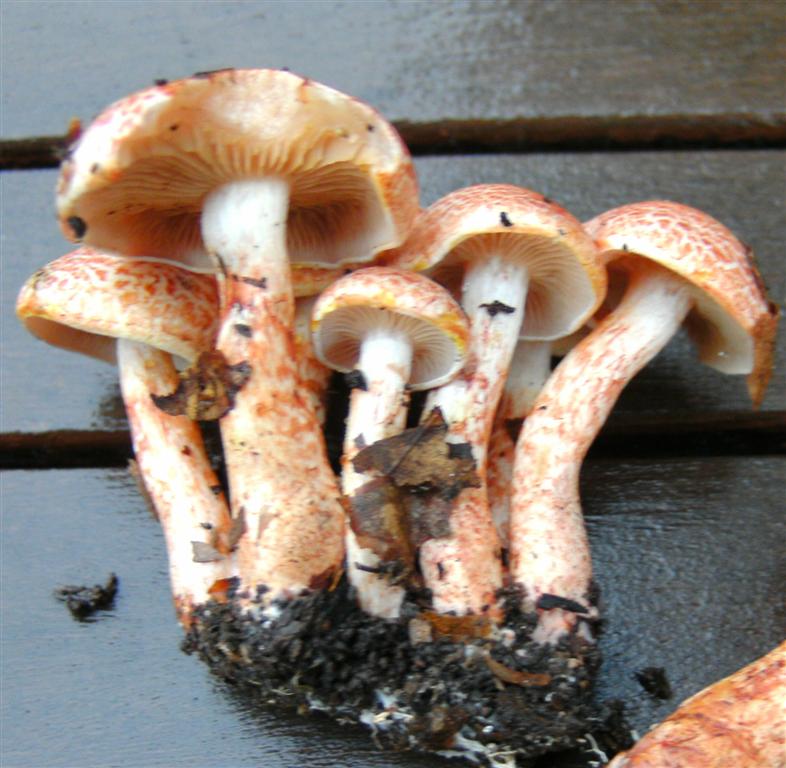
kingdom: Fungi
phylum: Basidiomycota
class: Agaricomycetes
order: Agaricales
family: Cortinariaceae
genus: Cortinarius
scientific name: Cortinarius bolaris
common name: cinnoberskællet slørhat
